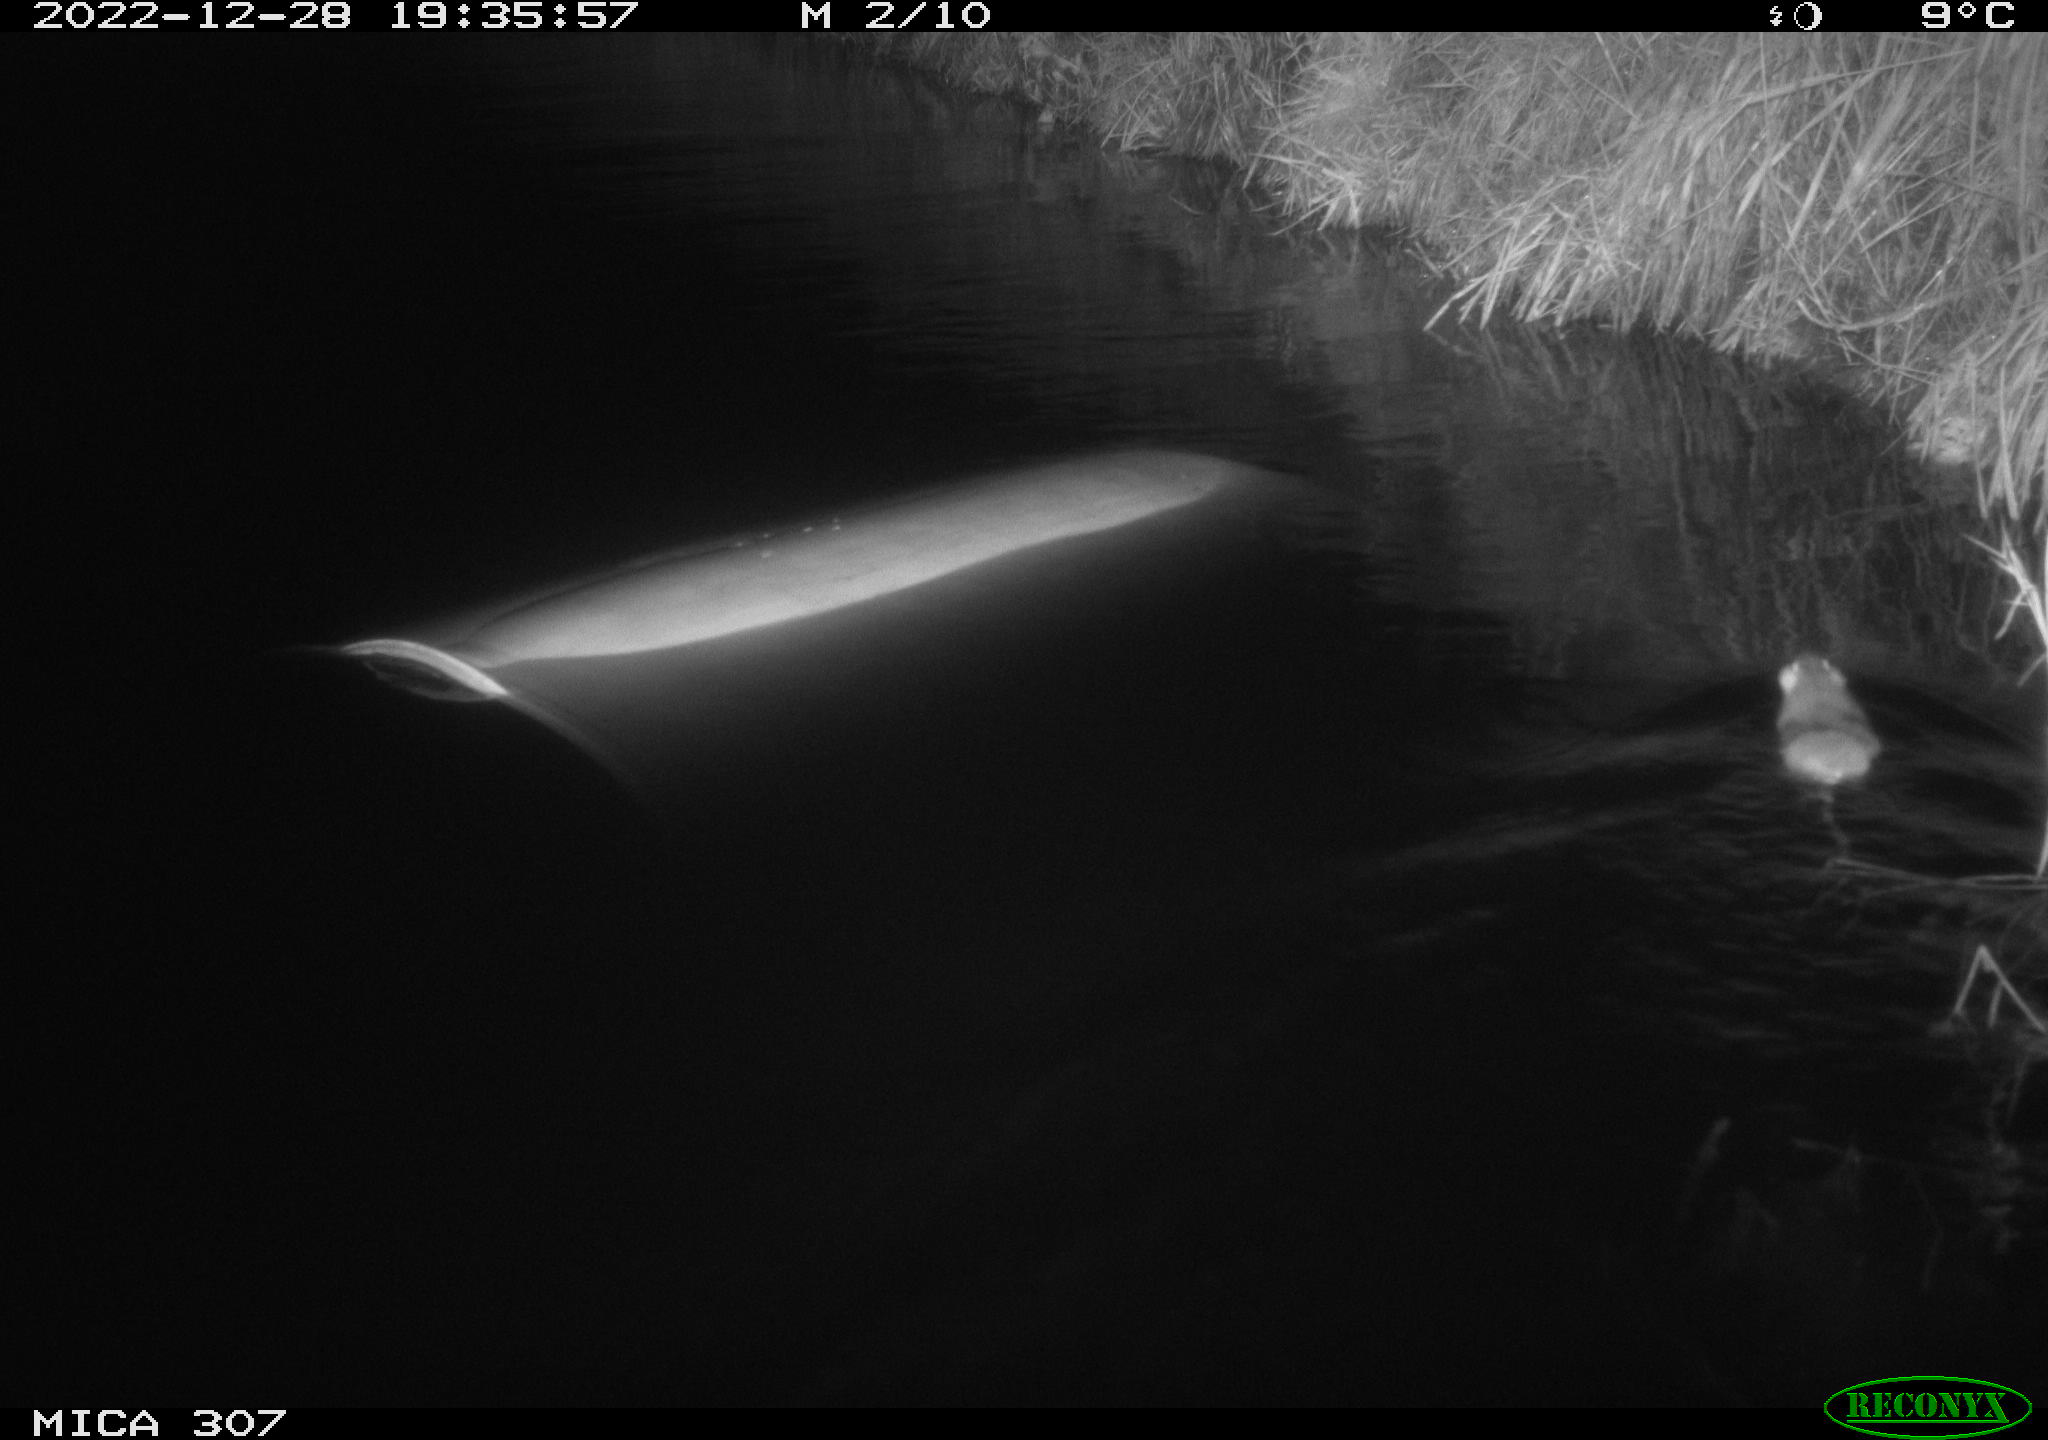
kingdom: Animalia
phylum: Chordata
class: Mammalia
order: Rodentia
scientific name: Rodentia
